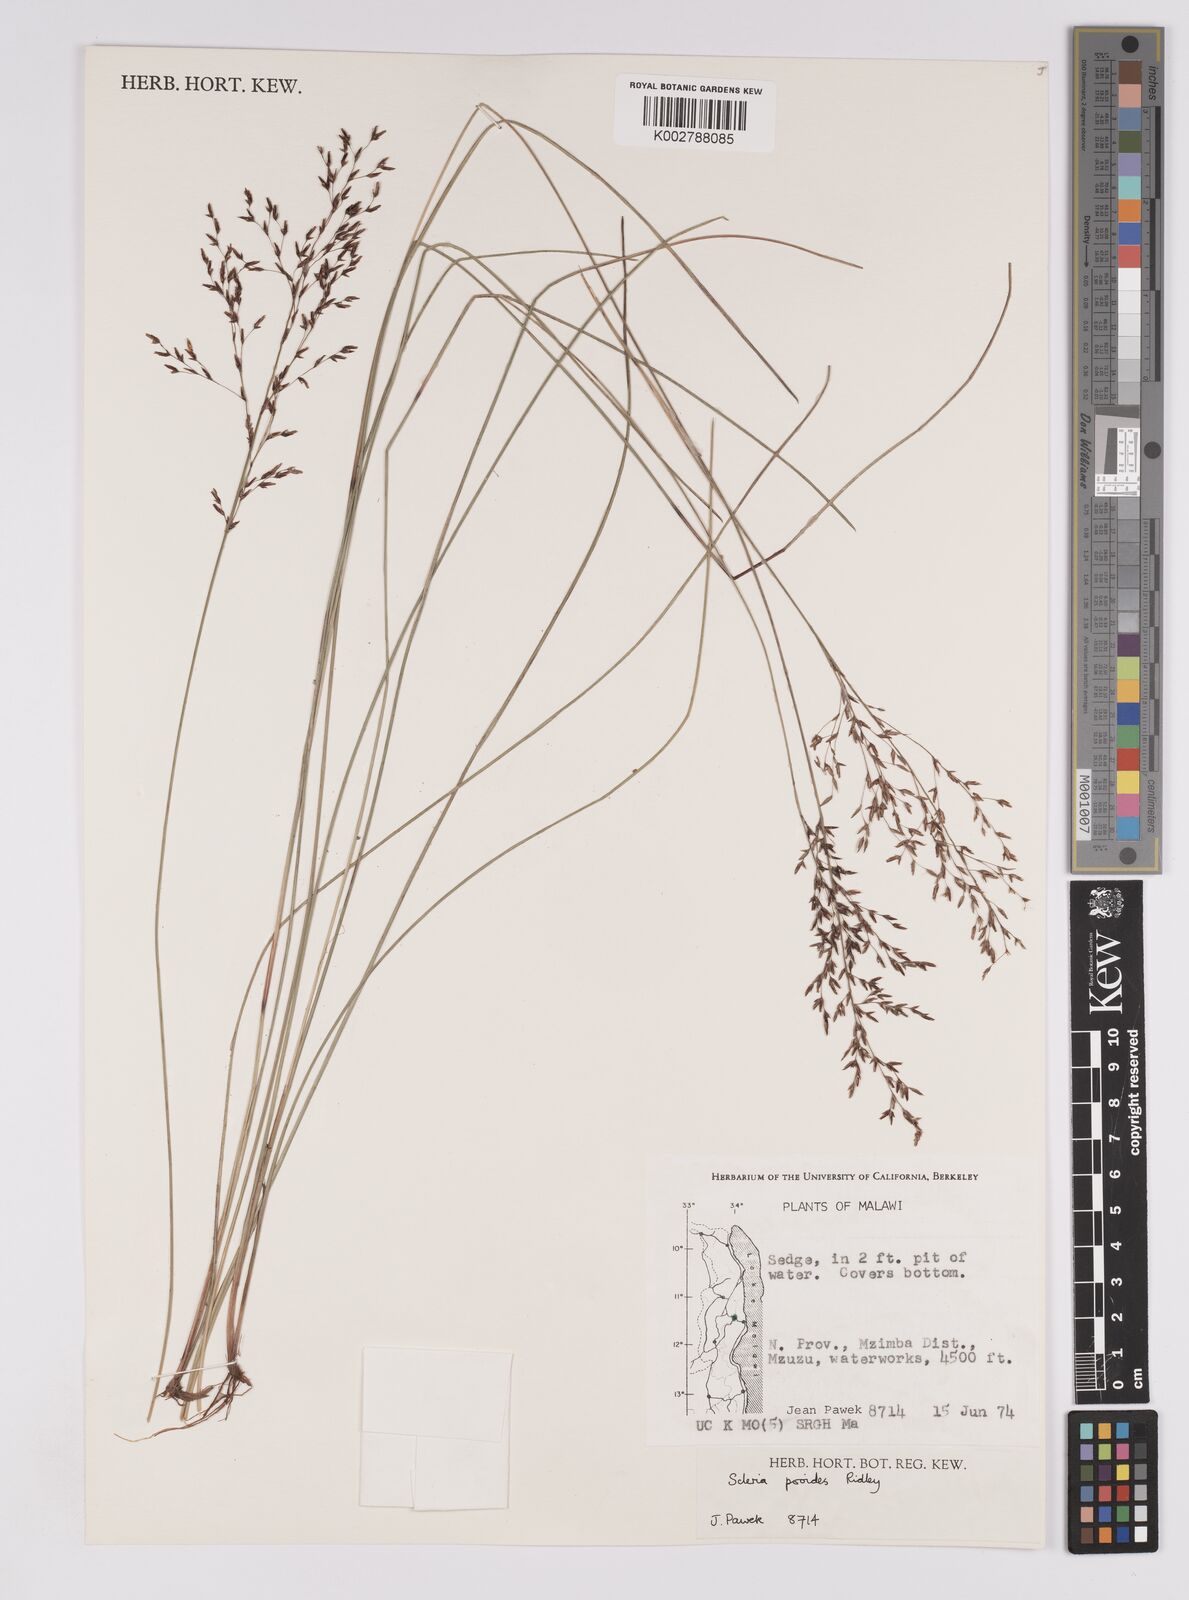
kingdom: Plantae
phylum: Tracheophyta
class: Liliopsida
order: Poales
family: Cyperaceae
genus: Scleria
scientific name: Scleria pooides
